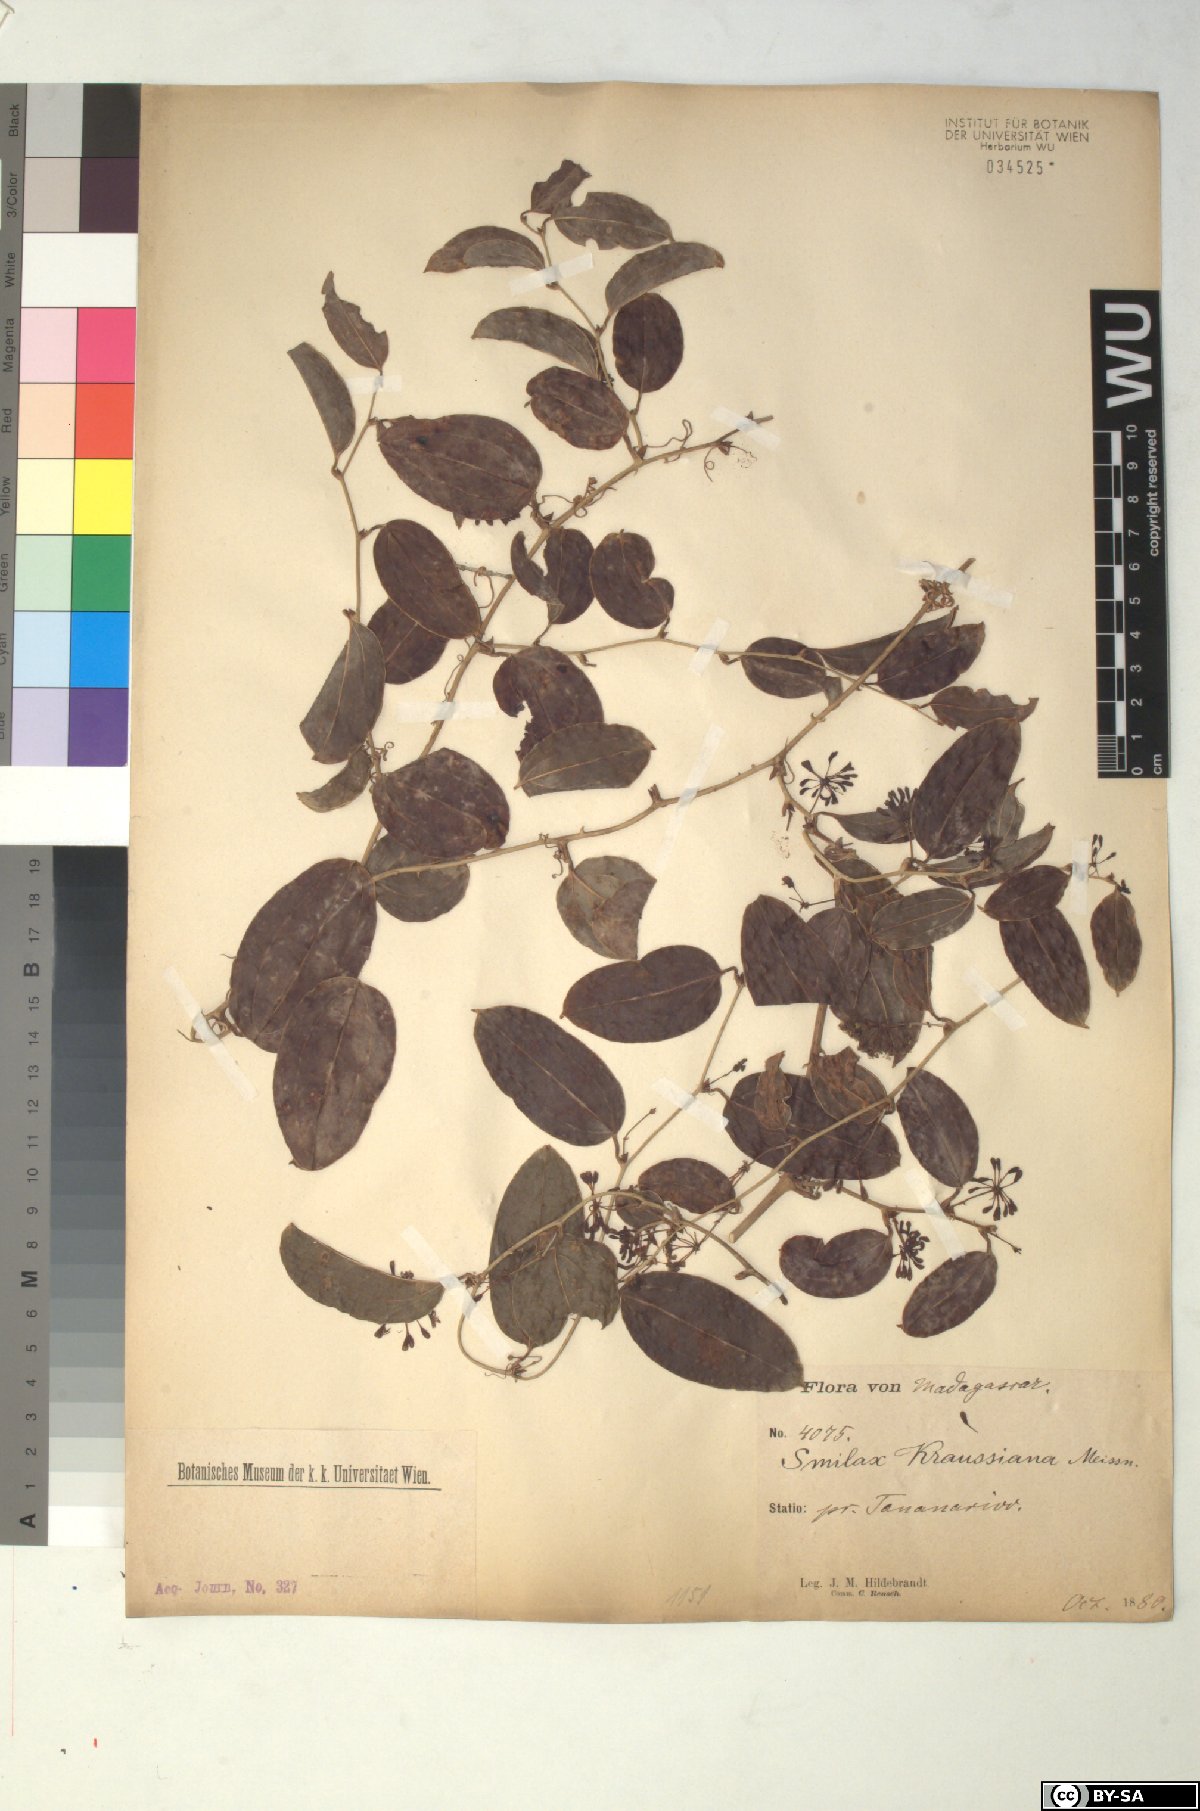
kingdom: Plantae
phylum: Tracheophyta
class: Liliopsida
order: Liliales
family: Smilacaceae
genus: Smilax
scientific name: Smilax anceps
